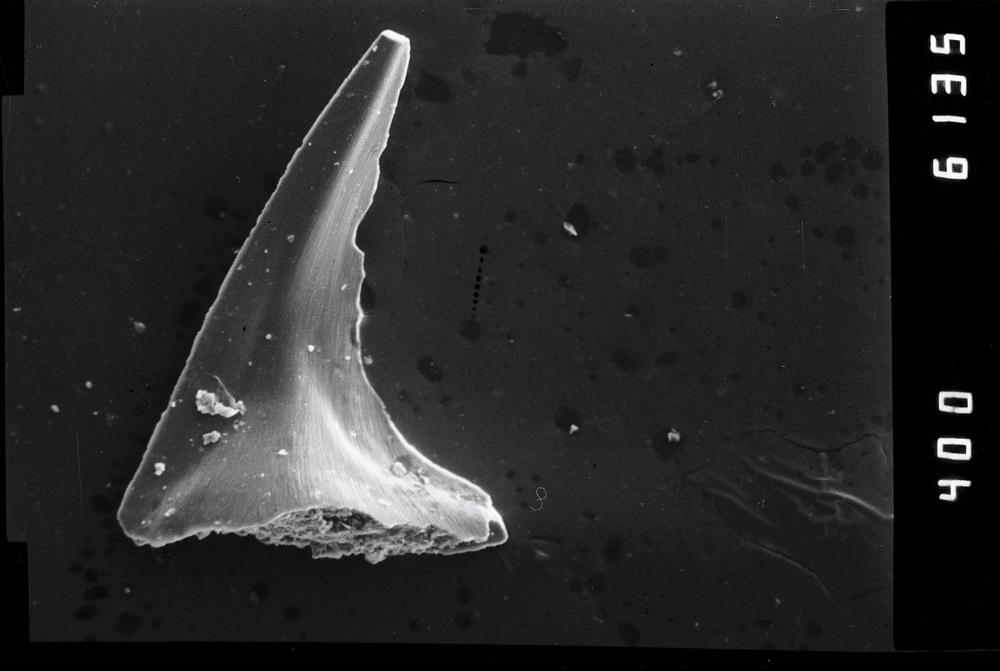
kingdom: Animalia
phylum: Annelida
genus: Paltodus
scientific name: Paltodus
